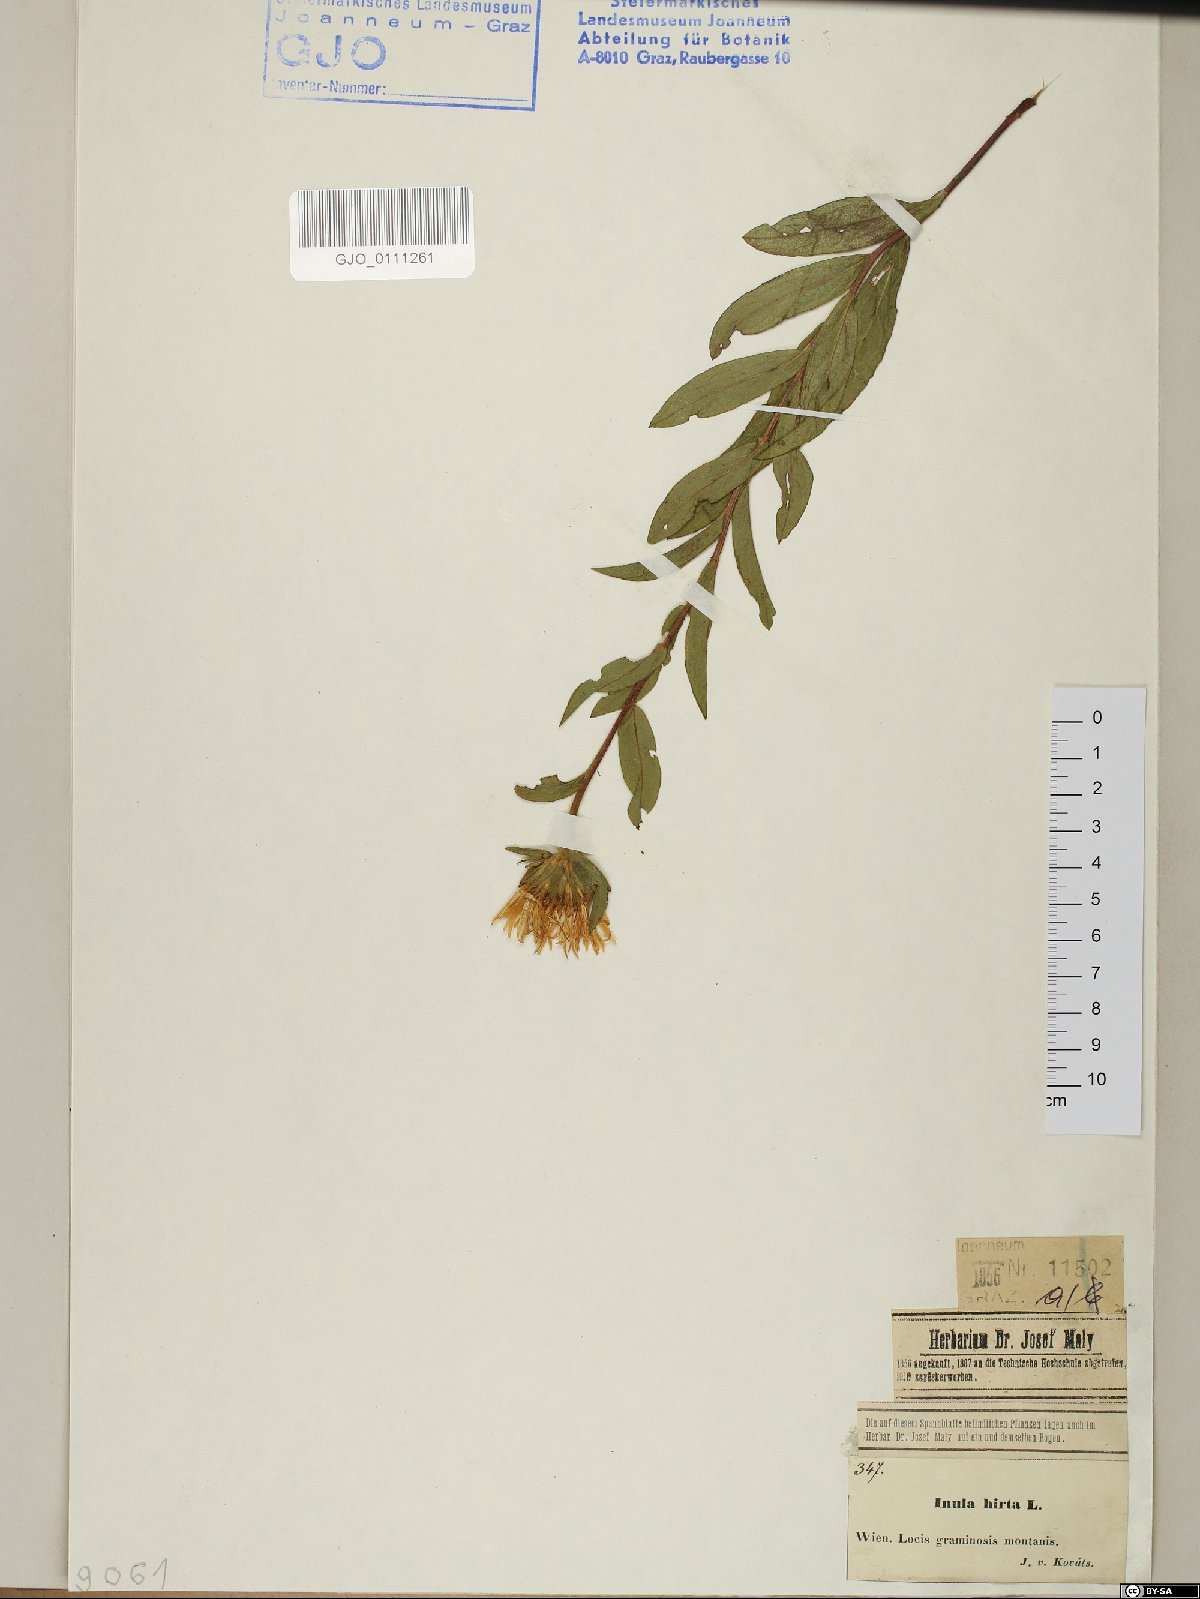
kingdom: Plantae
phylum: Tracheophyta
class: Magnoliopsida
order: Asterales
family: Asteraceae
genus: Pentanema
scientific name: Pentanema hirtum
